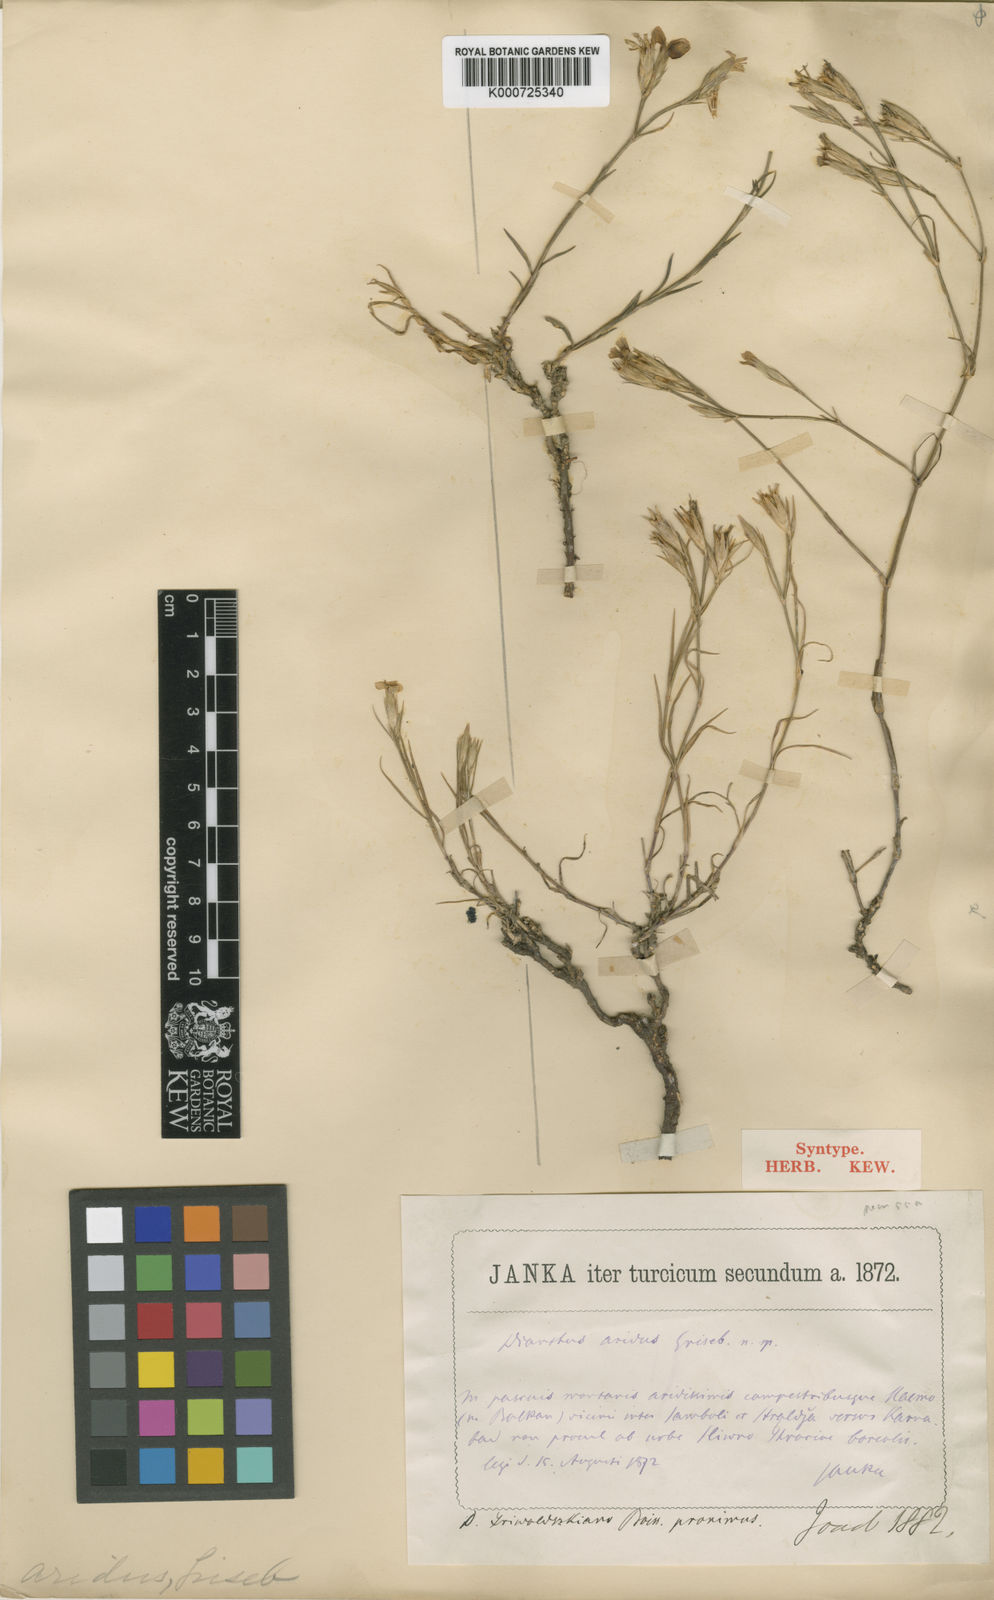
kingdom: Plantae
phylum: Tracheophyta
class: Magnoliopsida
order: Caryophyllales
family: Caryophyllaceae
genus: Dianthus
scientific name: Dianthus pallens
